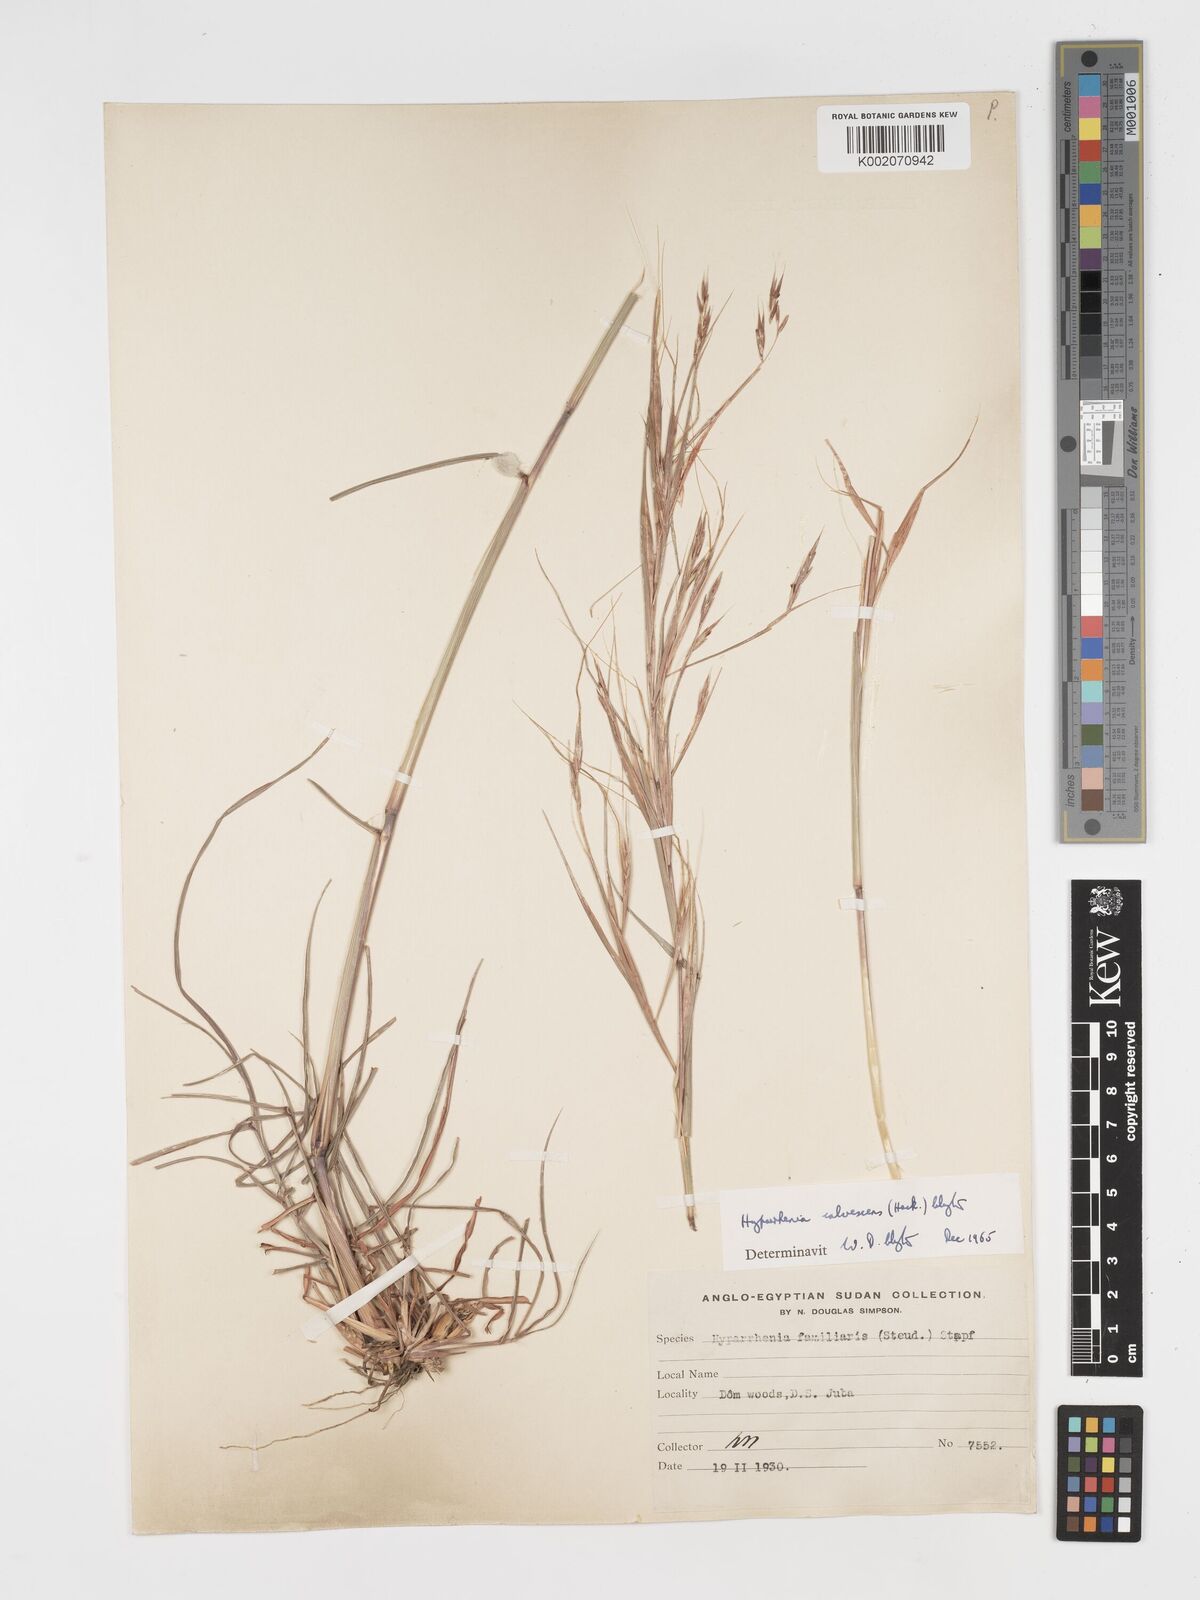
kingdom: Plantae
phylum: Tracheophyta
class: Liliopsida
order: Poales
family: Poaceae
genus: Hyparrhenia
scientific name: Hyparrhenia figariana
